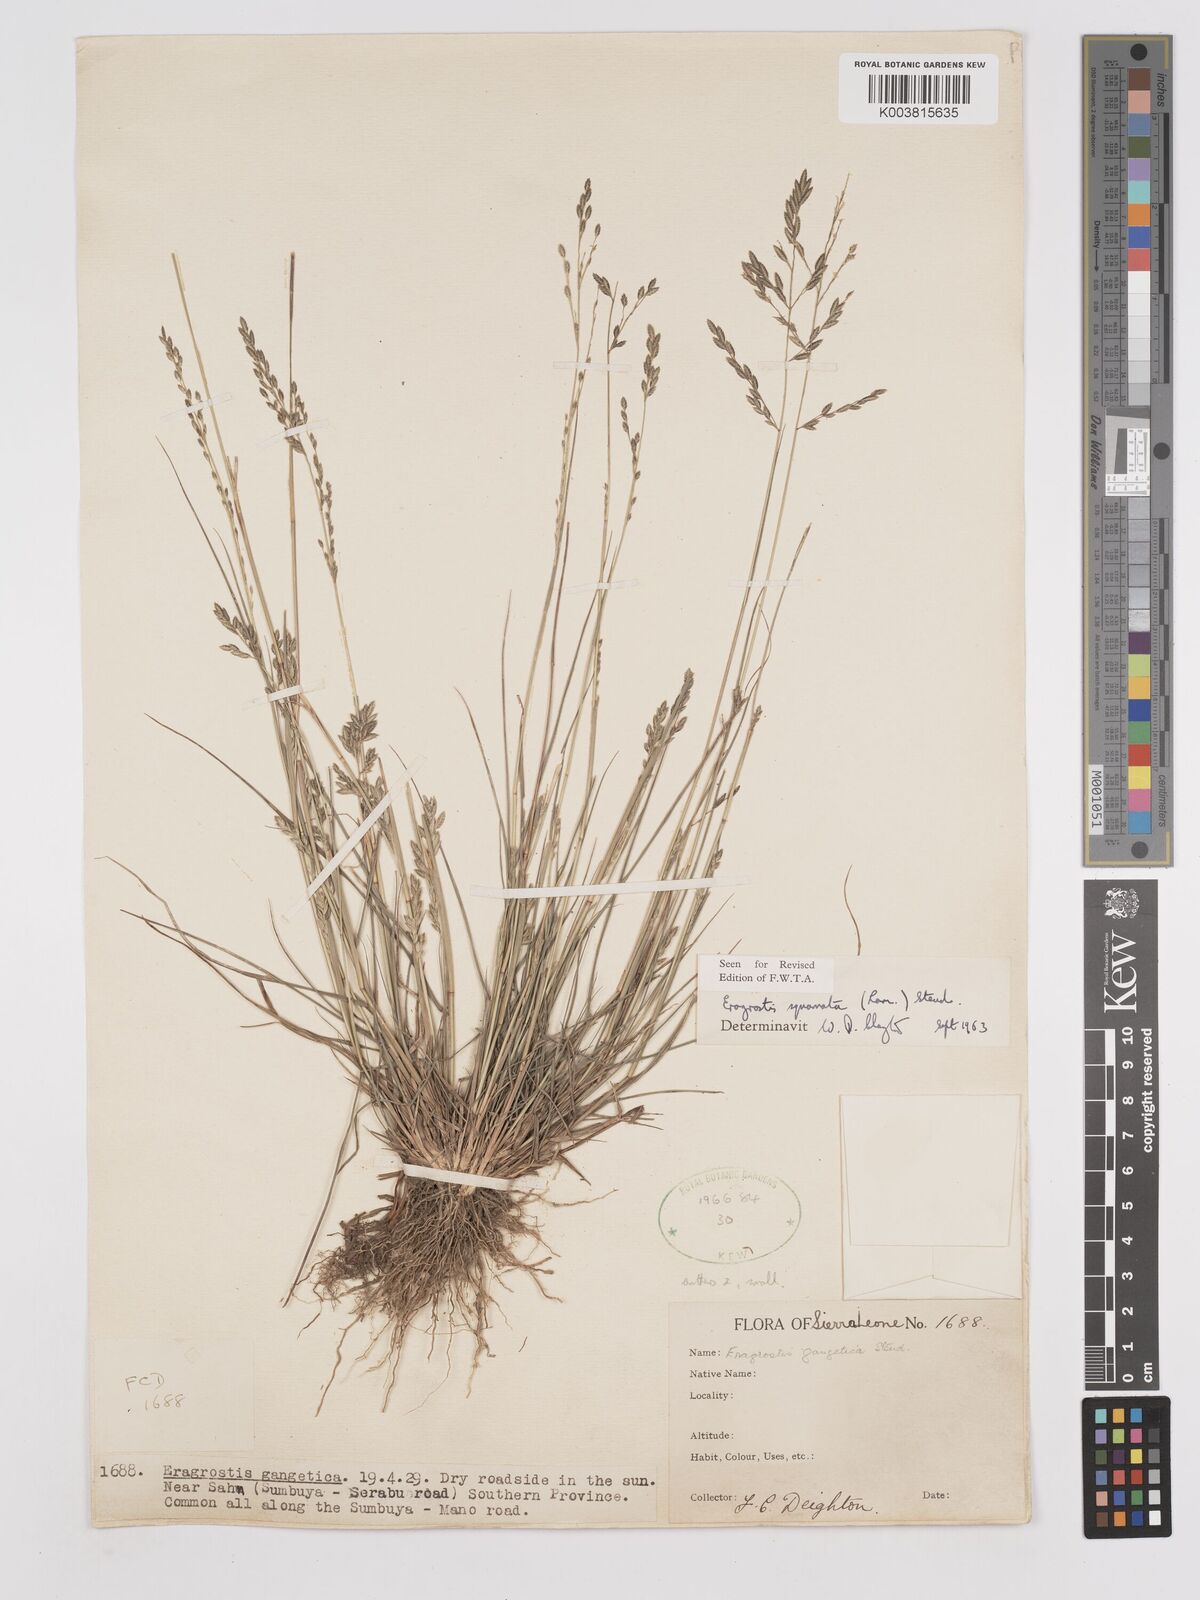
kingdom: Plantae
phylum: Tracheophyta
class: Liliopsida
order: Poales
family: Poaceae
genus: Eragrostis
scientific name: Eragrostis squamata
